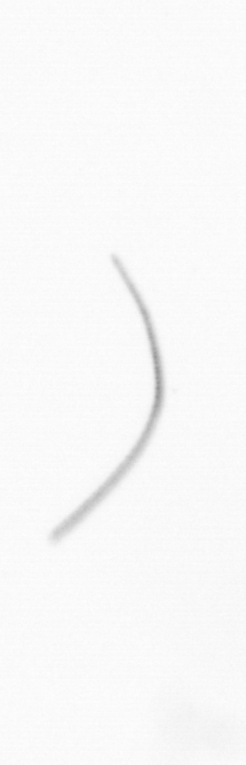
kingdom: Chromista
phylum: Ochrophyta
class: Bacillariophyceae
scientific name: Bacillariophyceae
